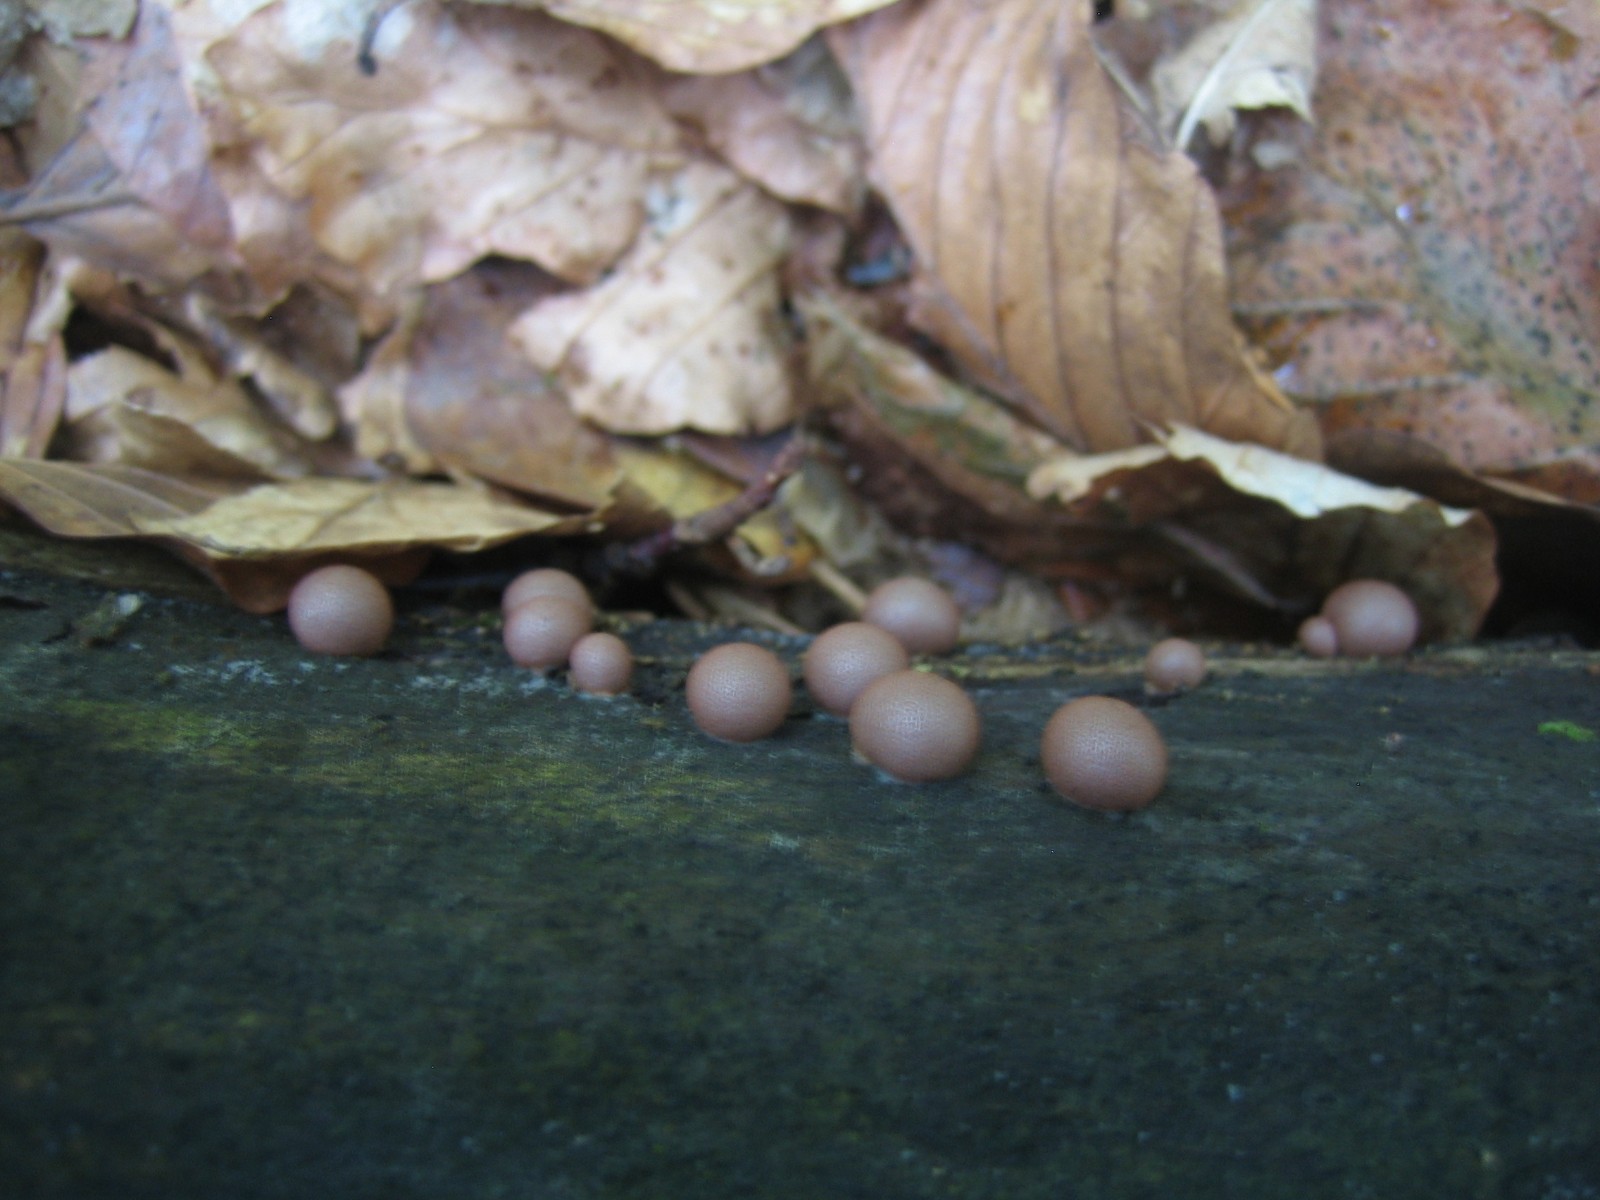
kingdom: Protozoa
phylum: Mycetozoa
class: Myxomycetes
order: Cribrariales
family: Tubiferaceae
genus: Lycogala
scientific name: Lycogala epidendrum
